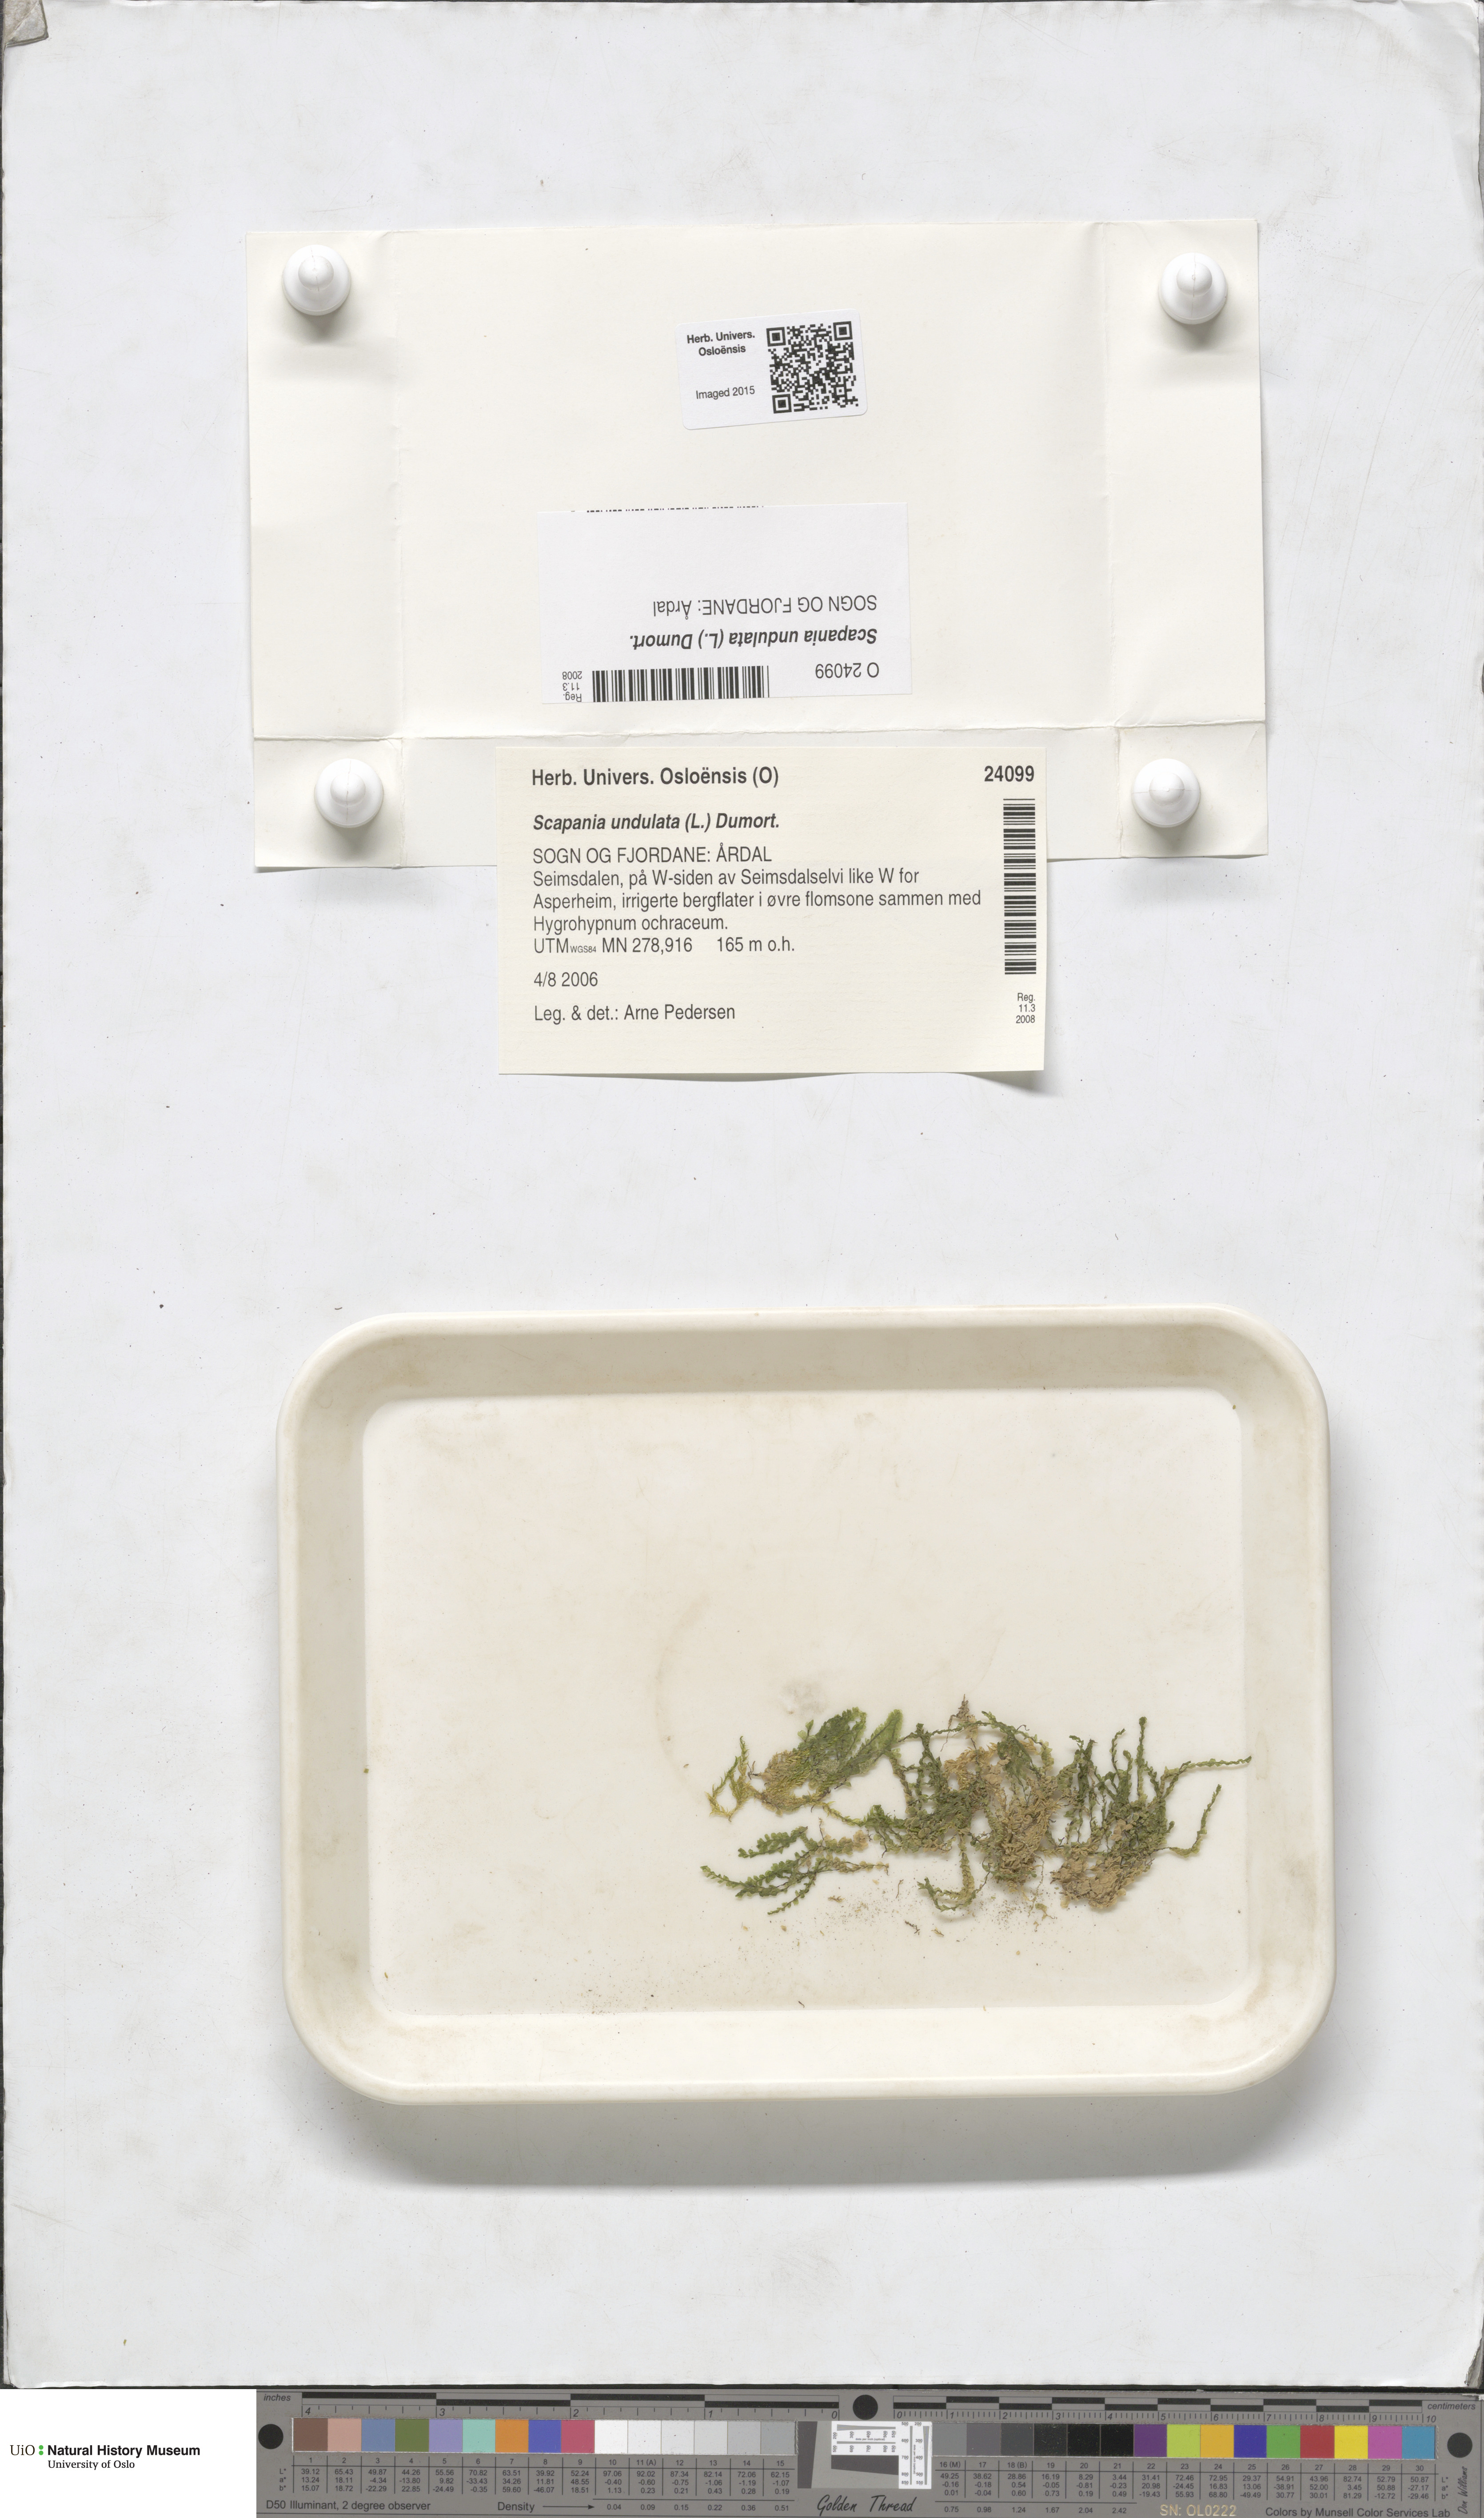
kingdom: Plantae
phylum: Marchantiophyta
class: Jungermanniopsida
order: Jungermanniales
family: Scapaniaceae
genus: Scapania
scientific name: Scapania undulata
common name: Water earwort
